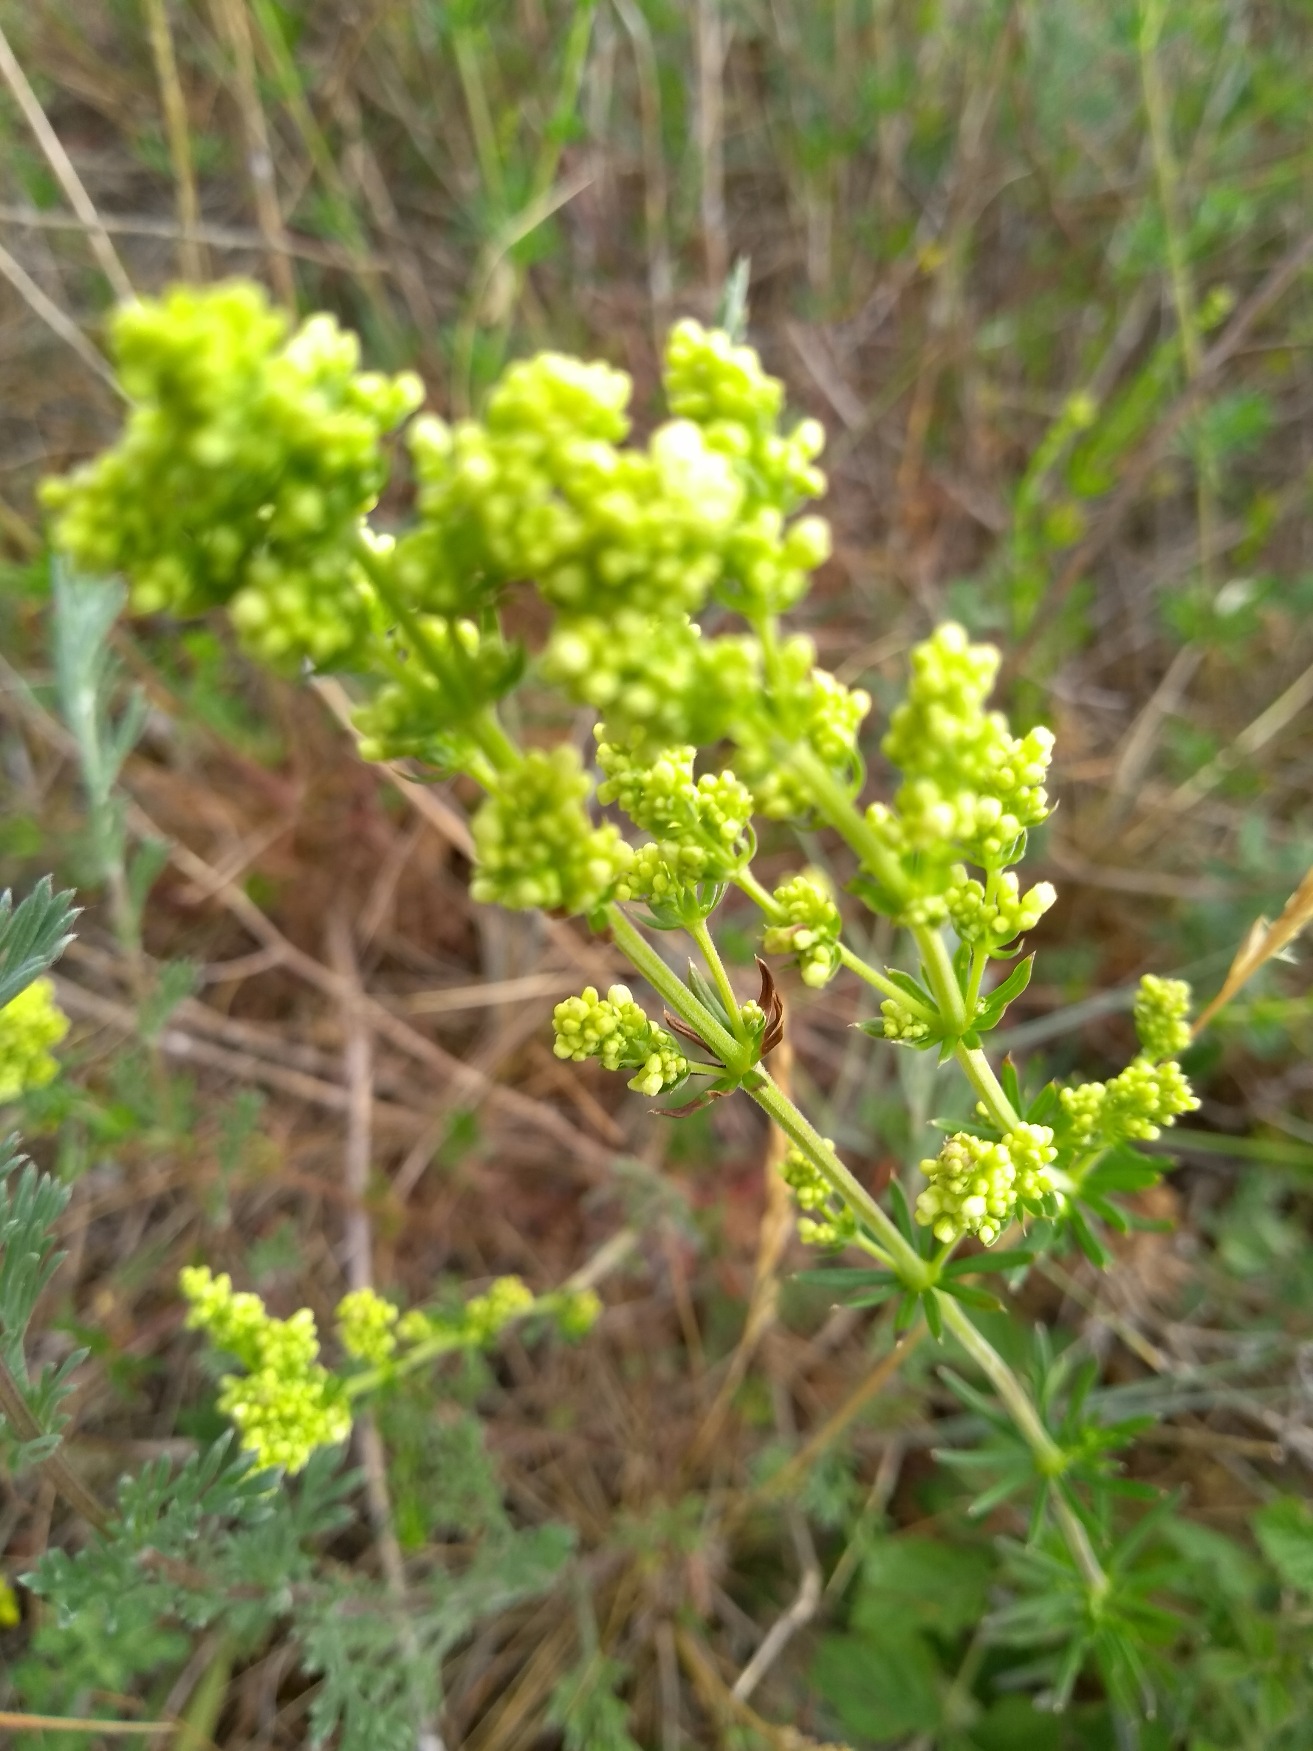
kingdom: Plantae
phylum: Tracheophyta
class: Magnoliopsida
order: Gentianales
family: Rubiaceae
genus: Galium
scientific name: Galium verum
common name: Gul snerre
